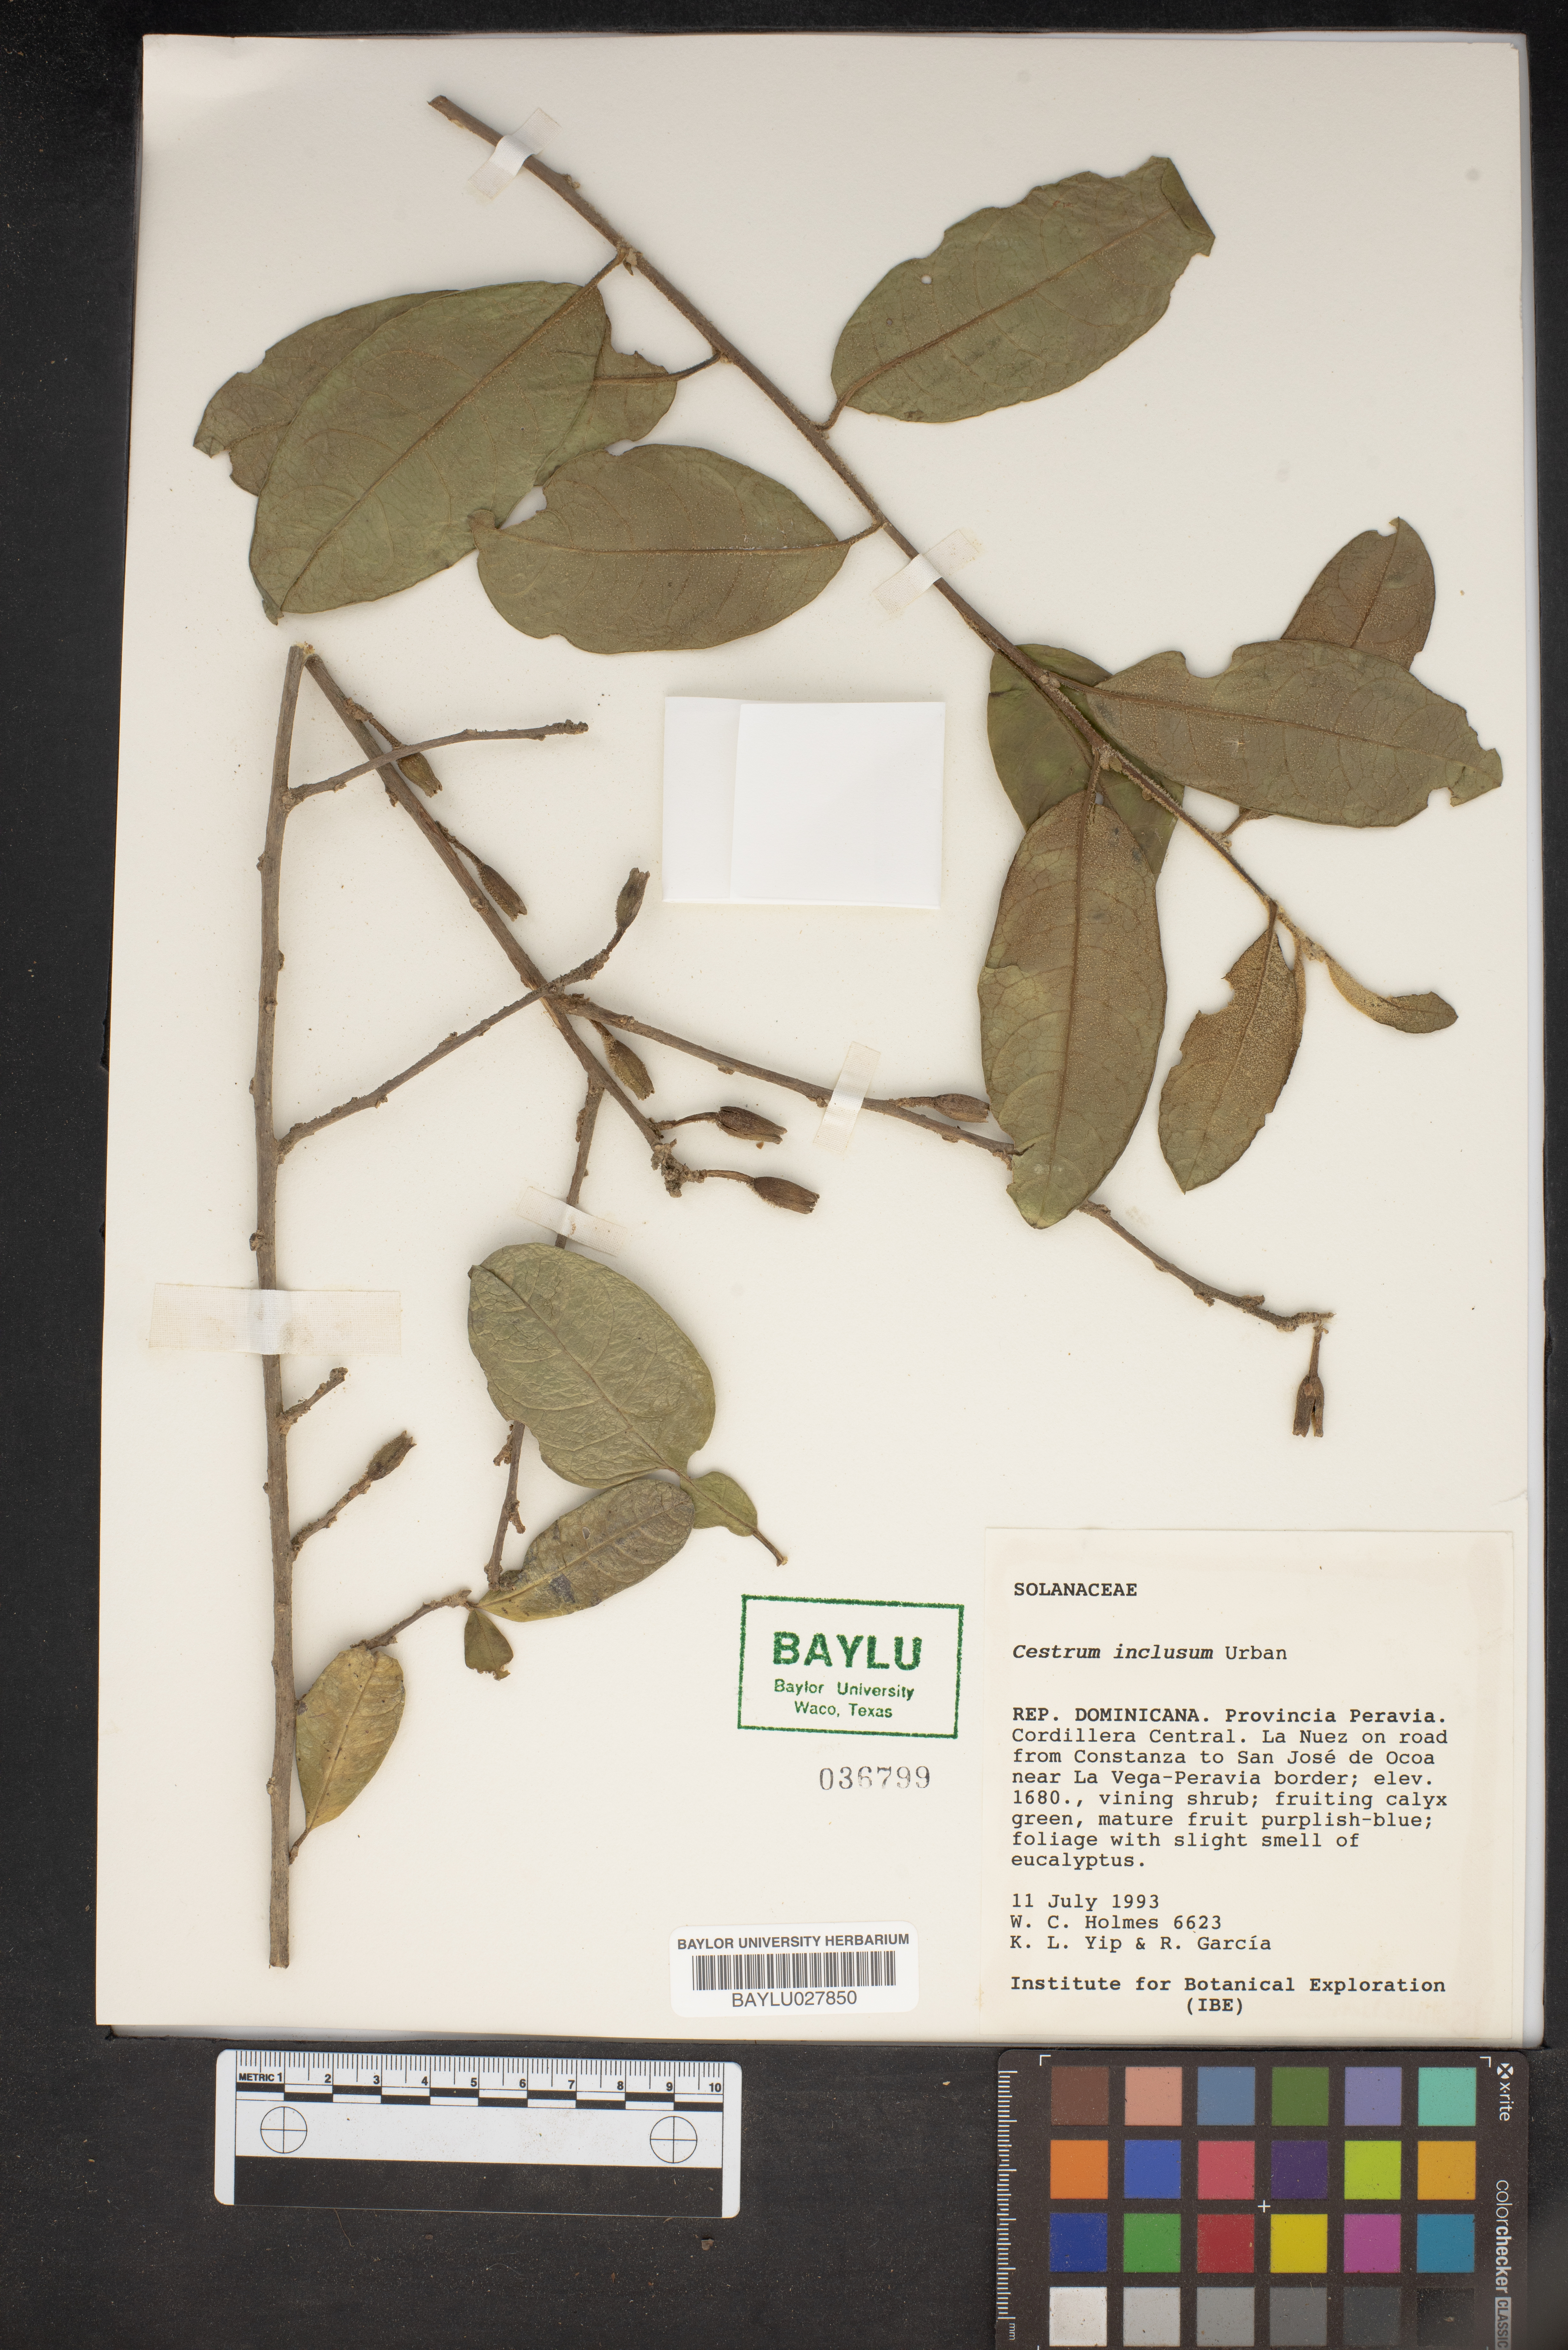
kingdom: Plantae
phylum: Tracheophyta
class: Magnoliopsida
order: Solanales
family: Solanaceae
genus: Cestrum
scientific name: Cestrum inclusum
